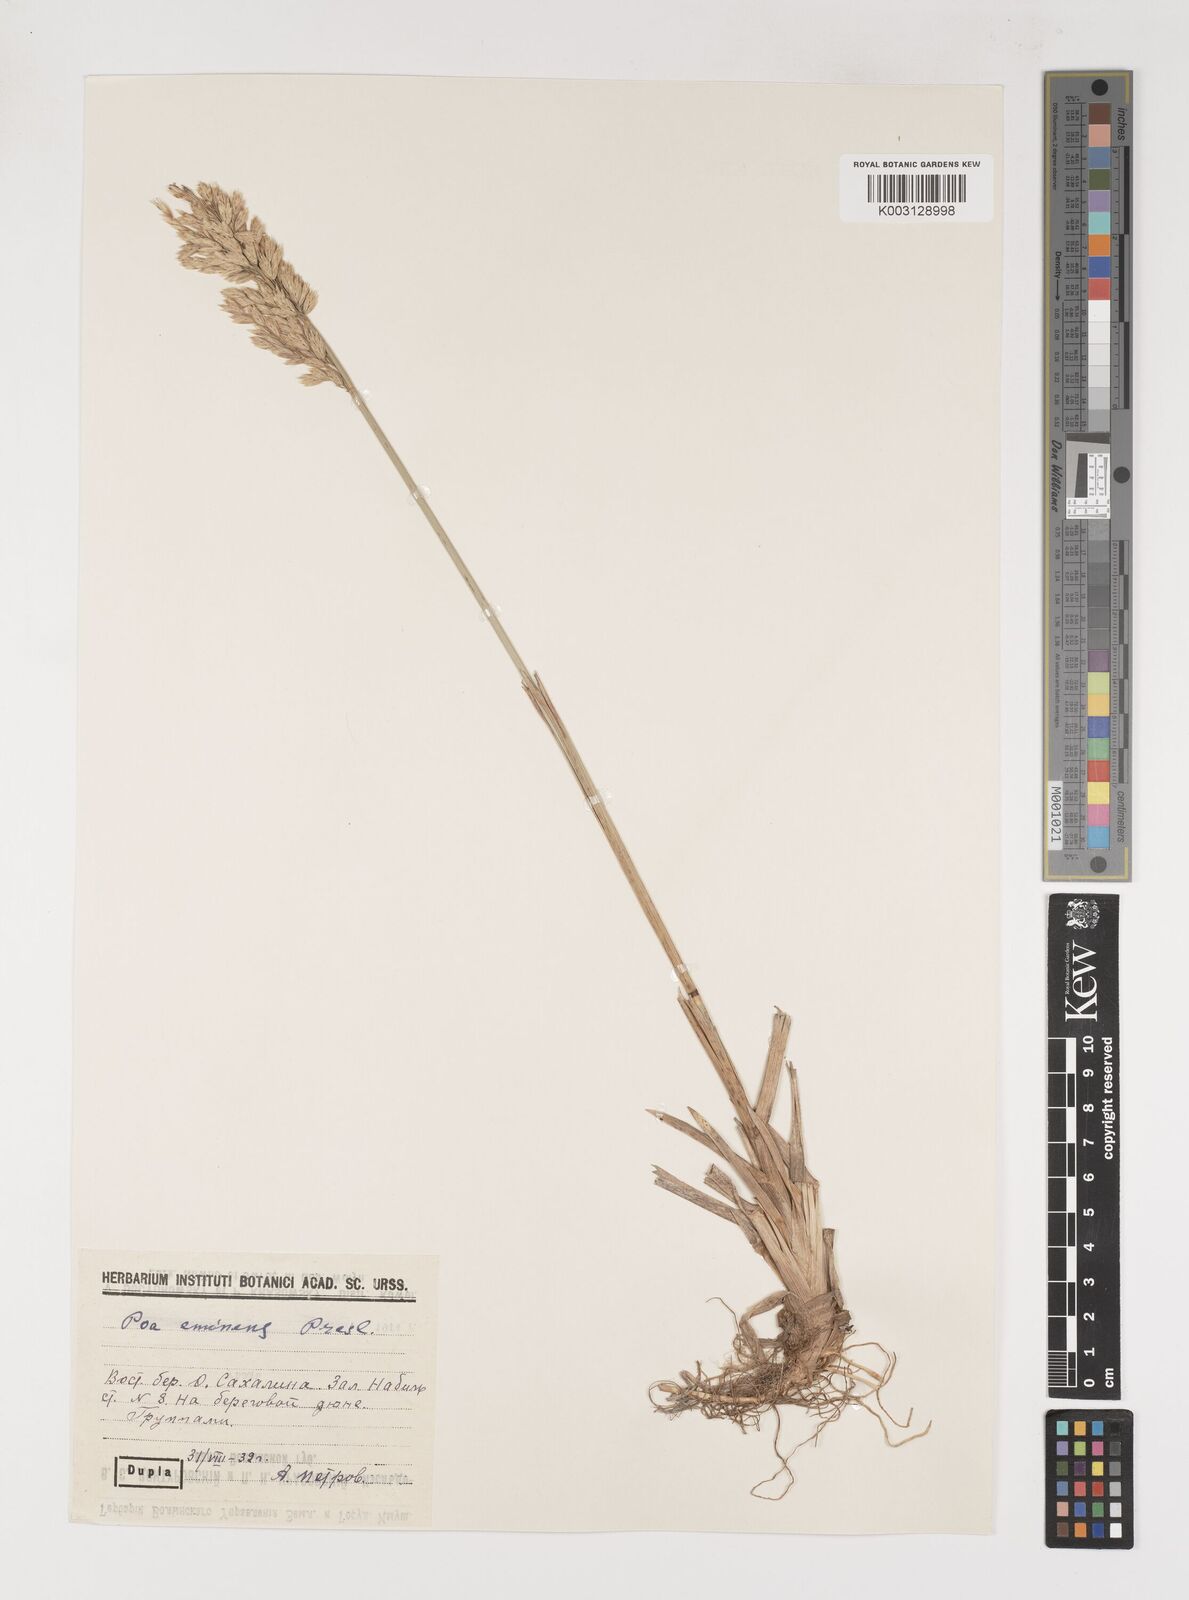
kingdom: Plantae
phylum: Tracheophyta
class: Liliopsida
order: Poales
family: Poaceae
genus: Arctopoa
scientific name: Arctopoa eminens
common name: Eminent bluegrass
